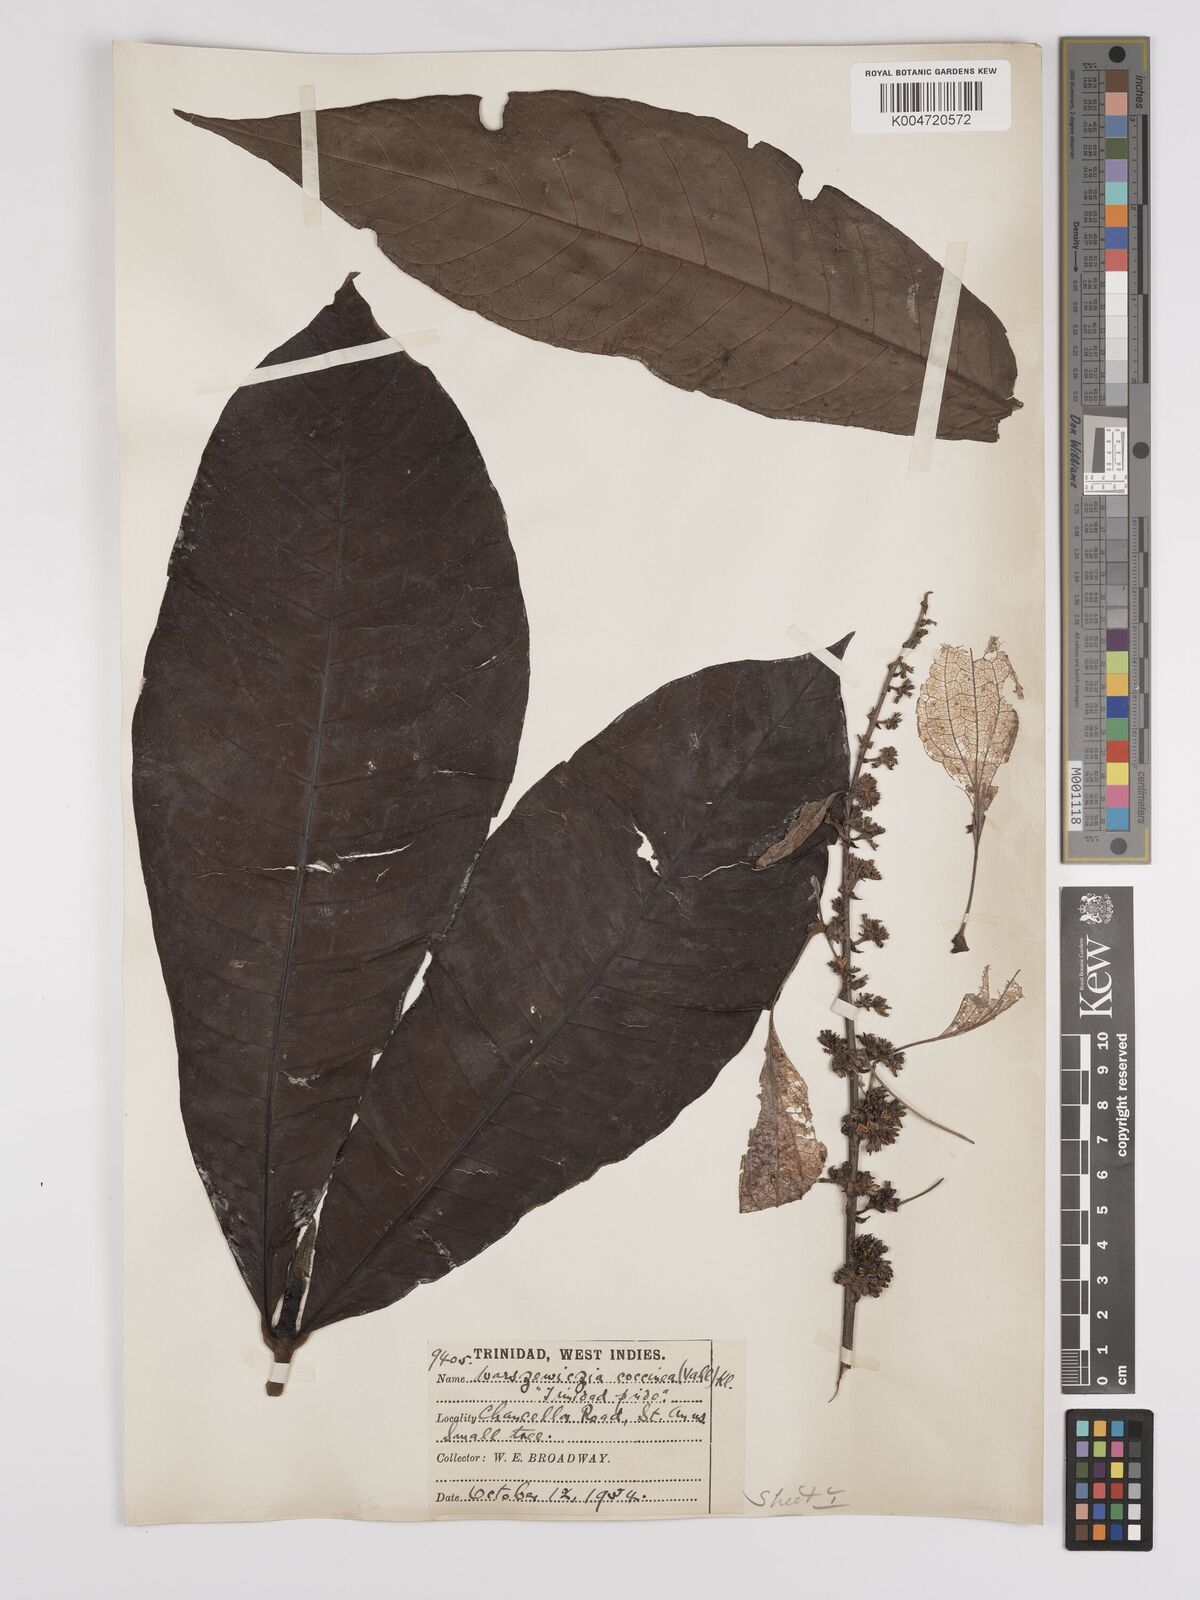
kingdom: Plantae
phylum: Tracheophyta
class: Magnoliopsida
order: Gentianales
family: Rubiaceae
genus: Warszewiczia
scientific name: Warszewiczia coccinea
